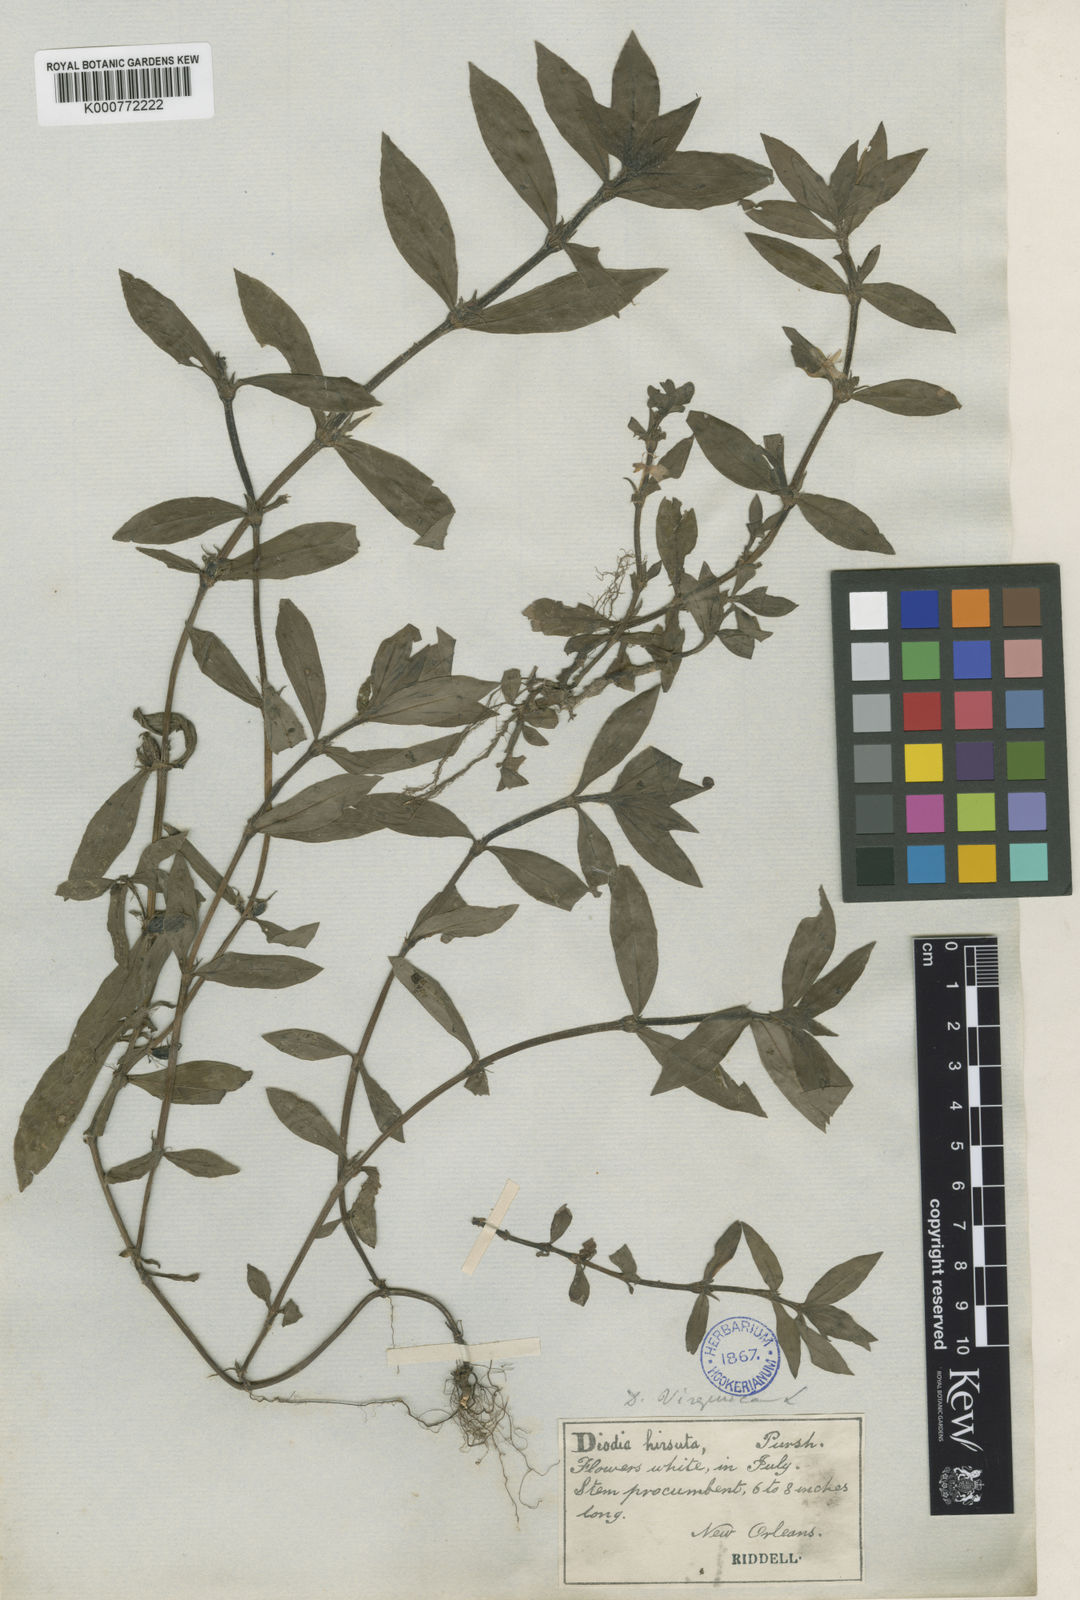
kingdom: Plantae
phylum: Tracheophyta
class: Magnoliopsida
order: Gentianales
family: Rubiaceae
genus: Diodia
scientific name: Diodia virginiana
